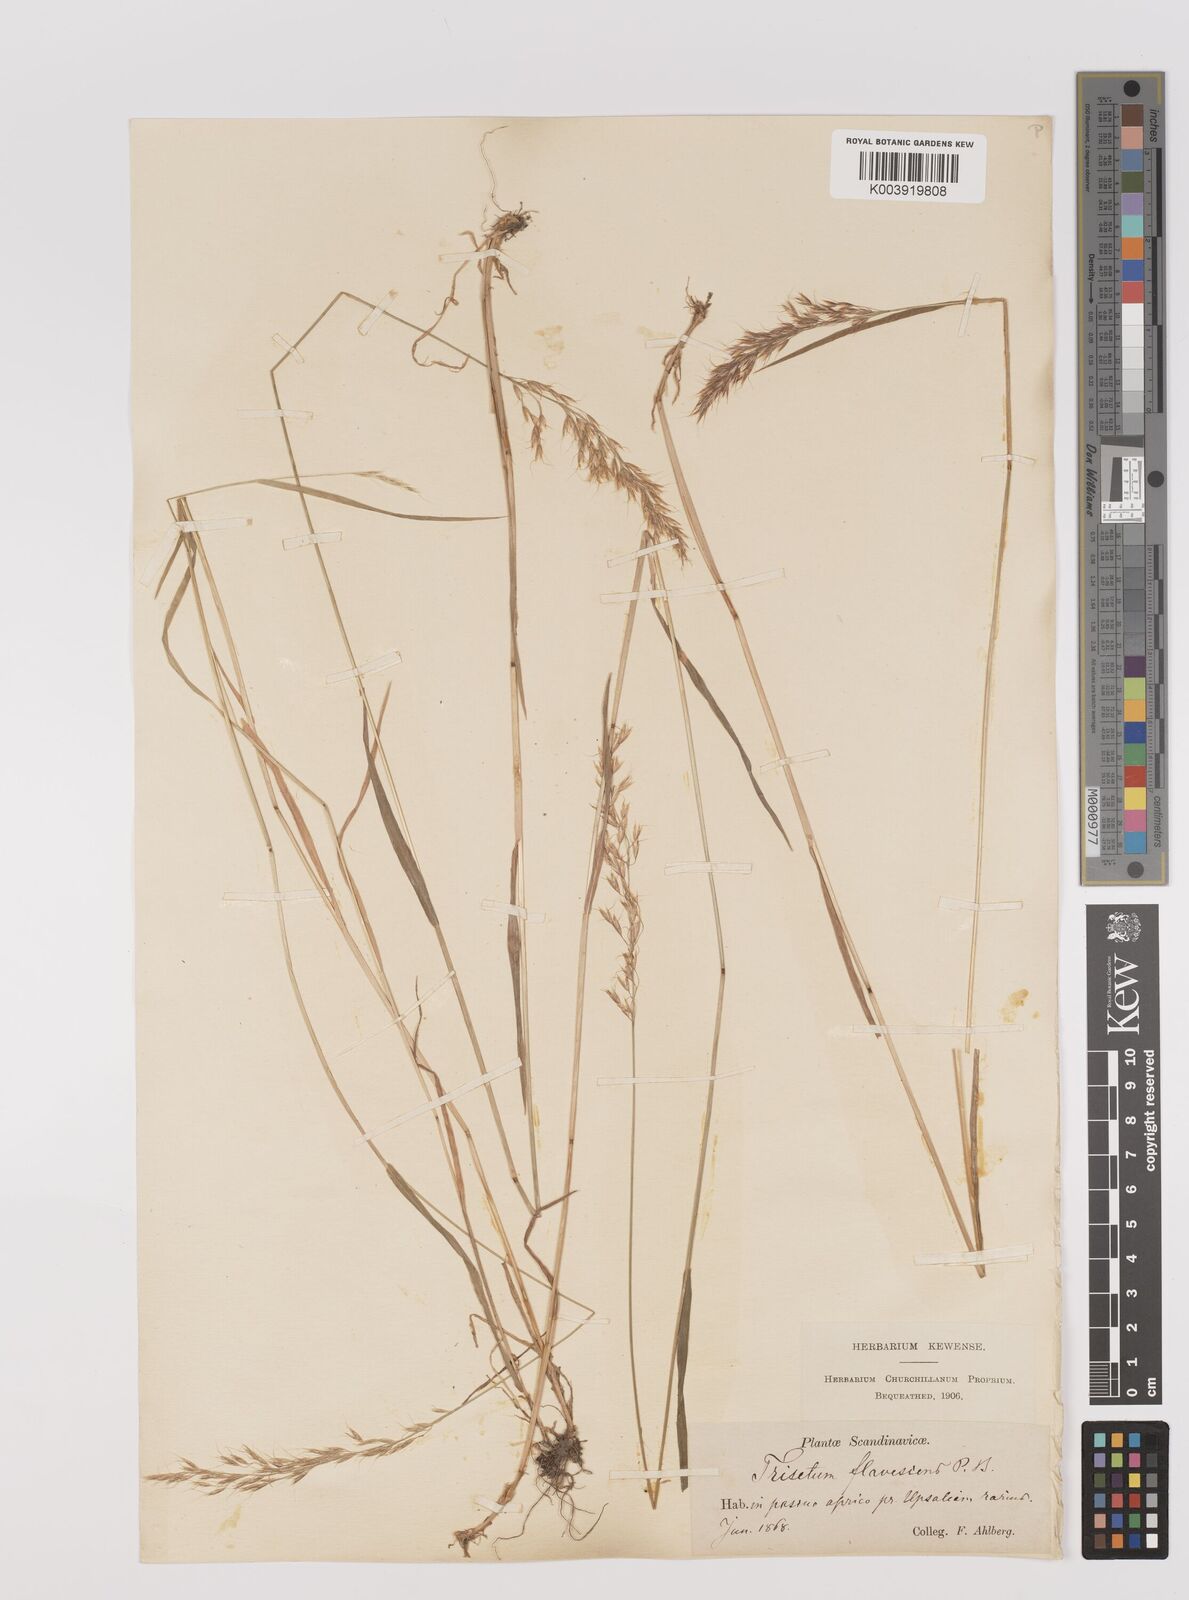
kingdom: Plantae
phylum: Tracheophyta
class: Liliopsida
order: Poales
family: Poaceae
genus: Trisetum
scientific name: Trisetum flavescens
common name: Yellow oat-grass
